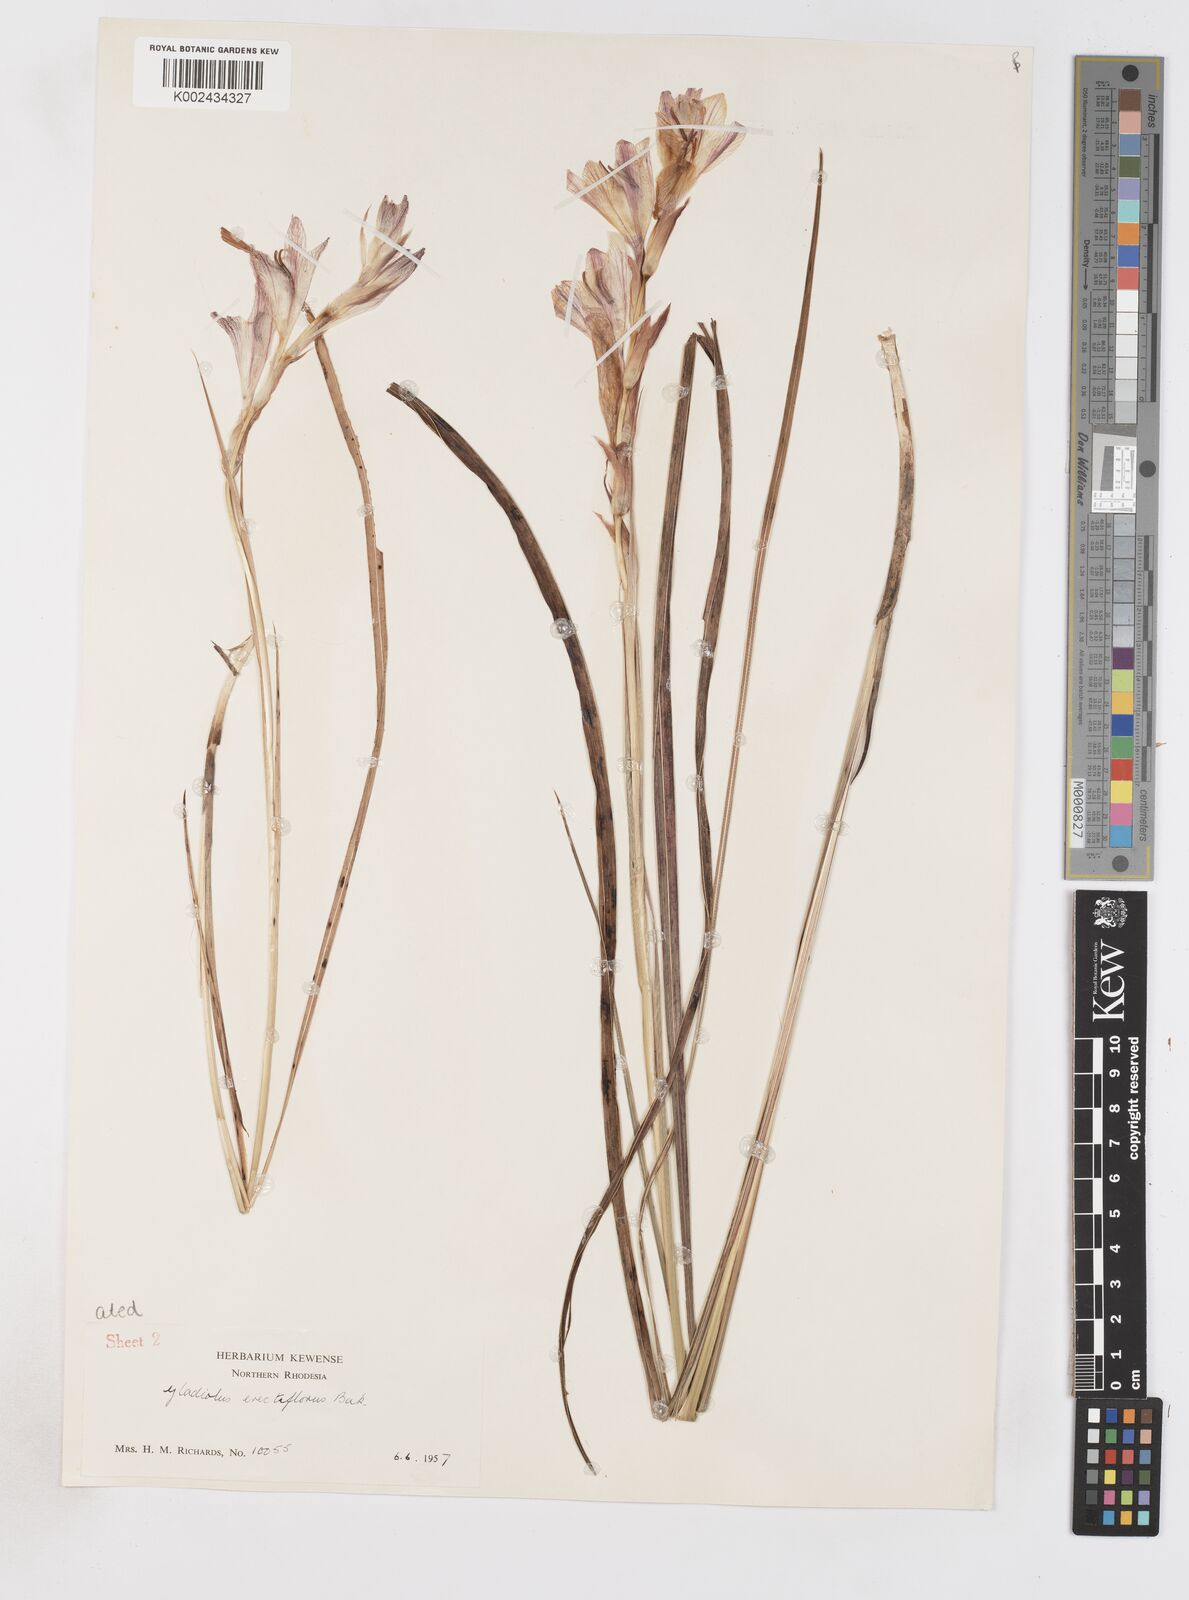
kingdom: Plantae
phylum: Tracheophyta
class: Liliopsida
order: Asparagales
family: Iridaceae
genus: Gladiolus
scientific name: Gladiolus erectiflorus
